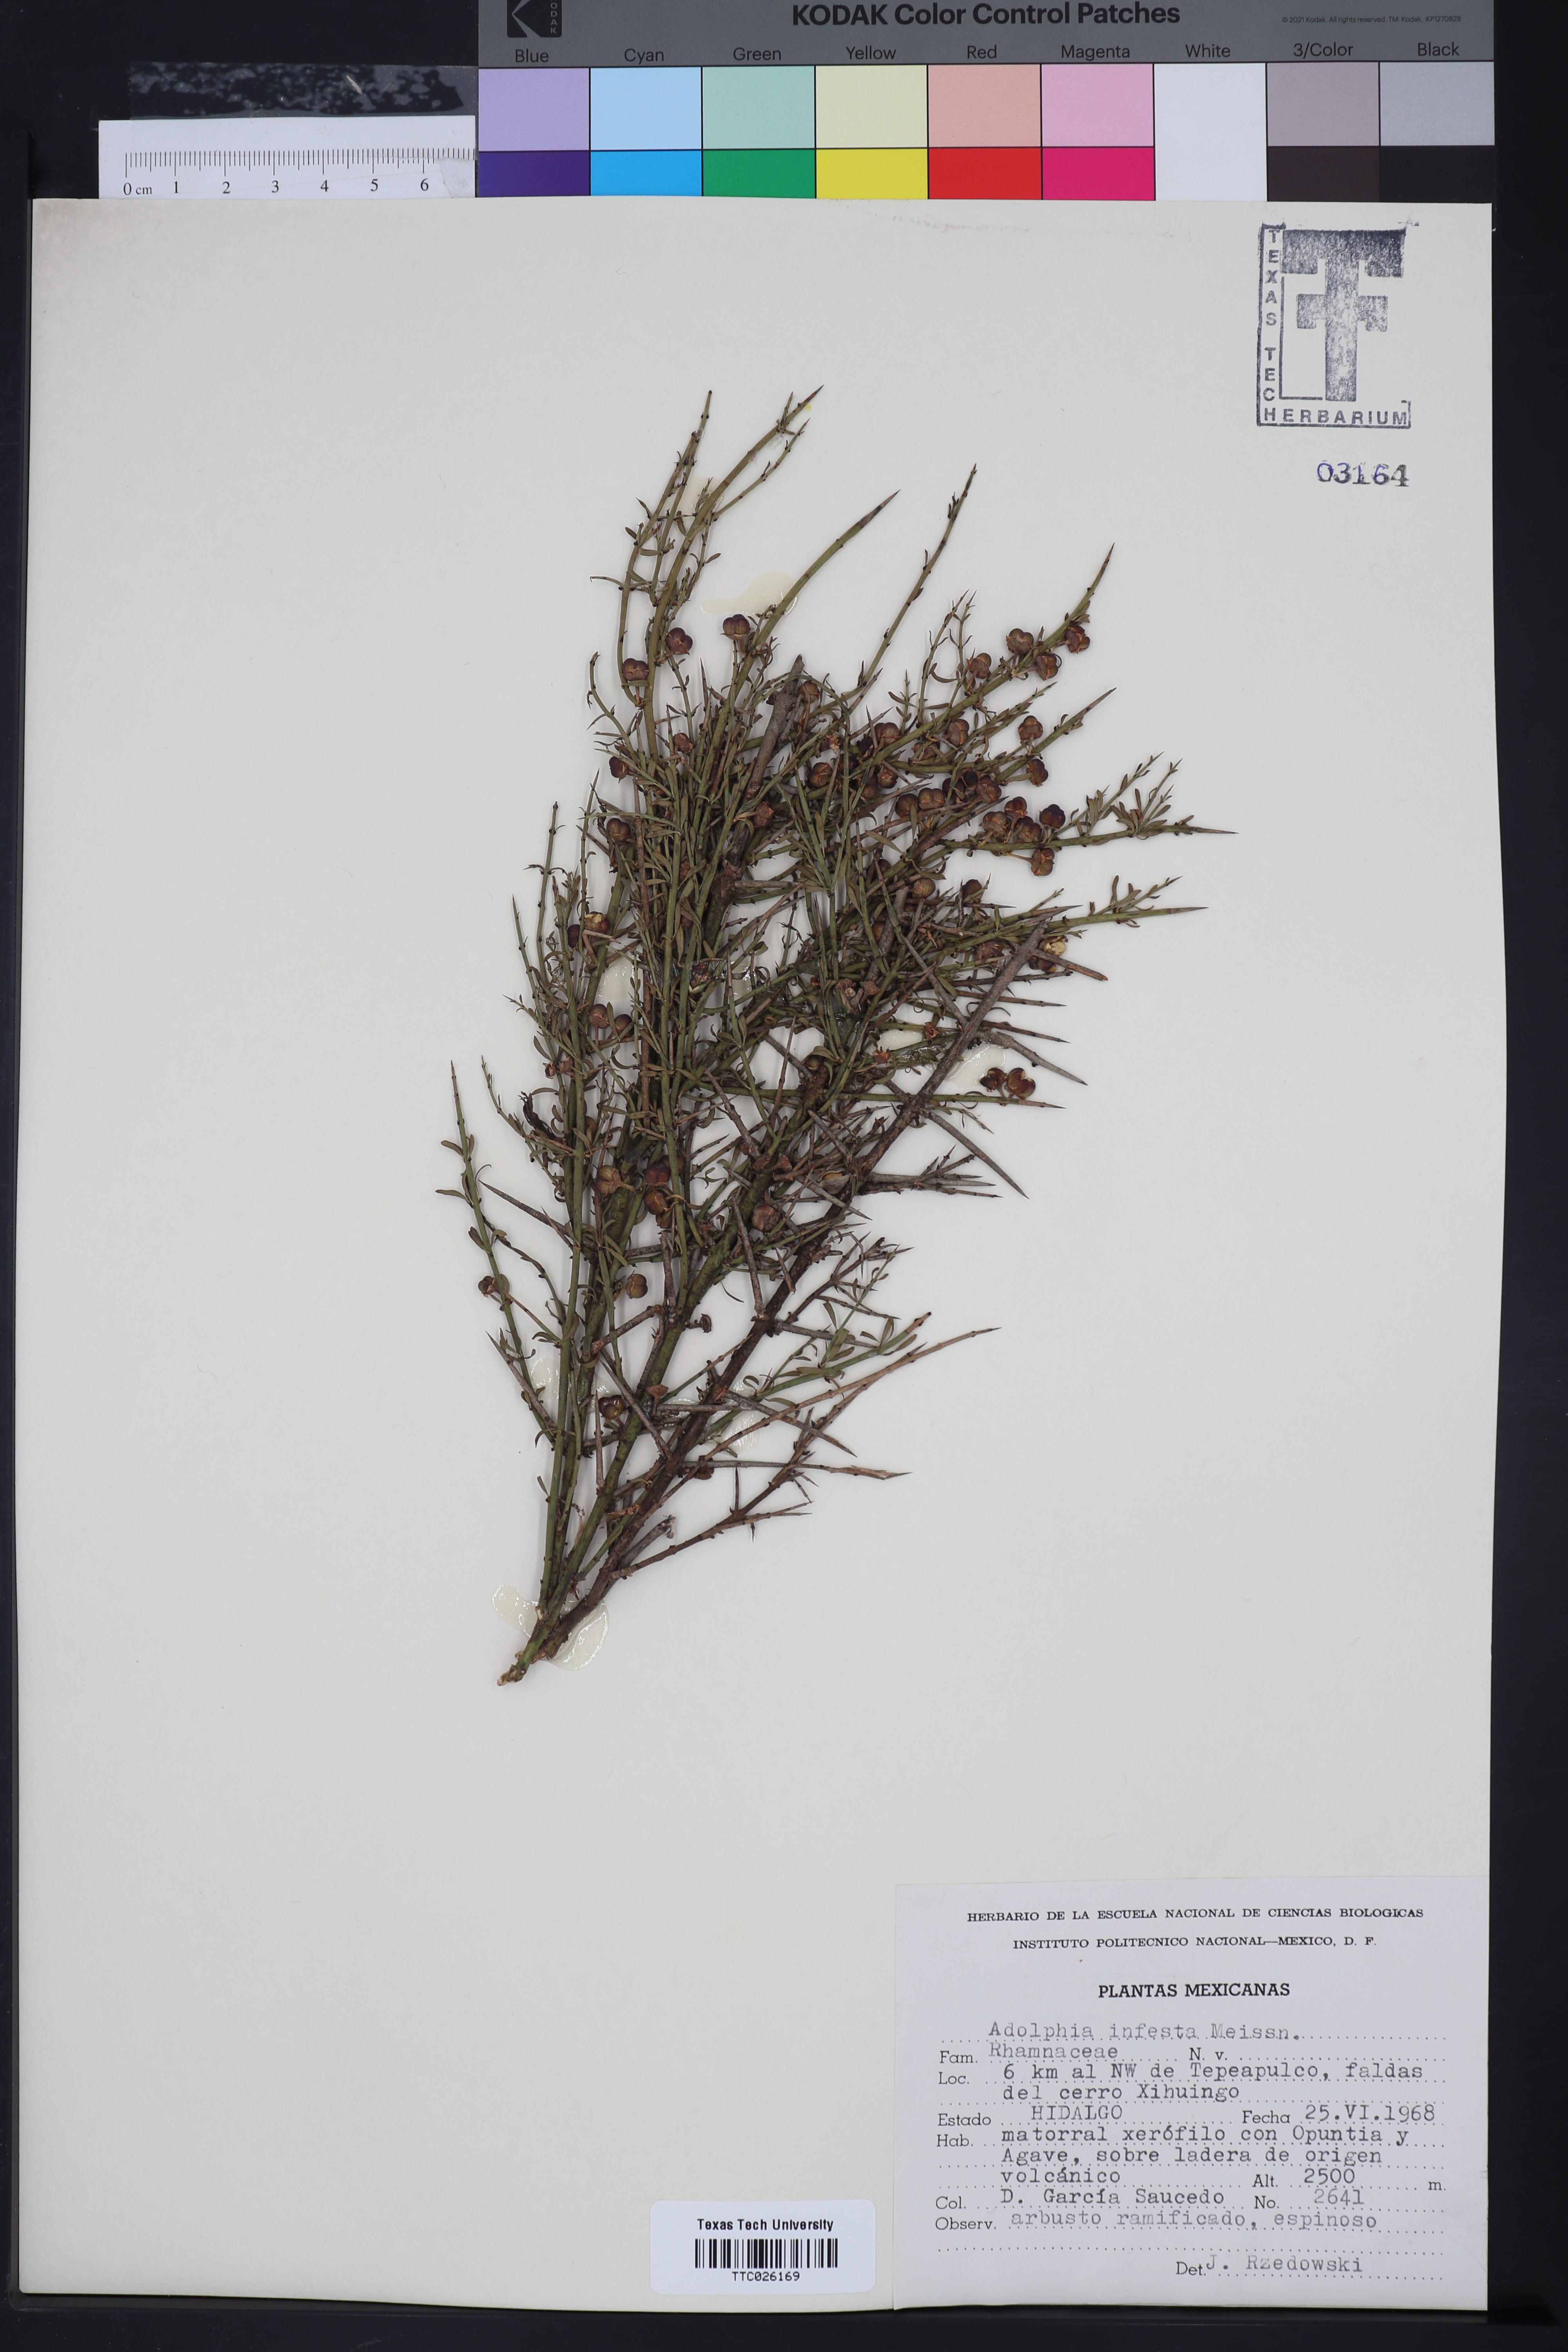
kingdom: Plantae
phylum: Tracheophyta
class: Magnoliopsida
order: Rosales
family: Rhamnaceae
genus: Adolphia
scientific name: Adolphia infesta
